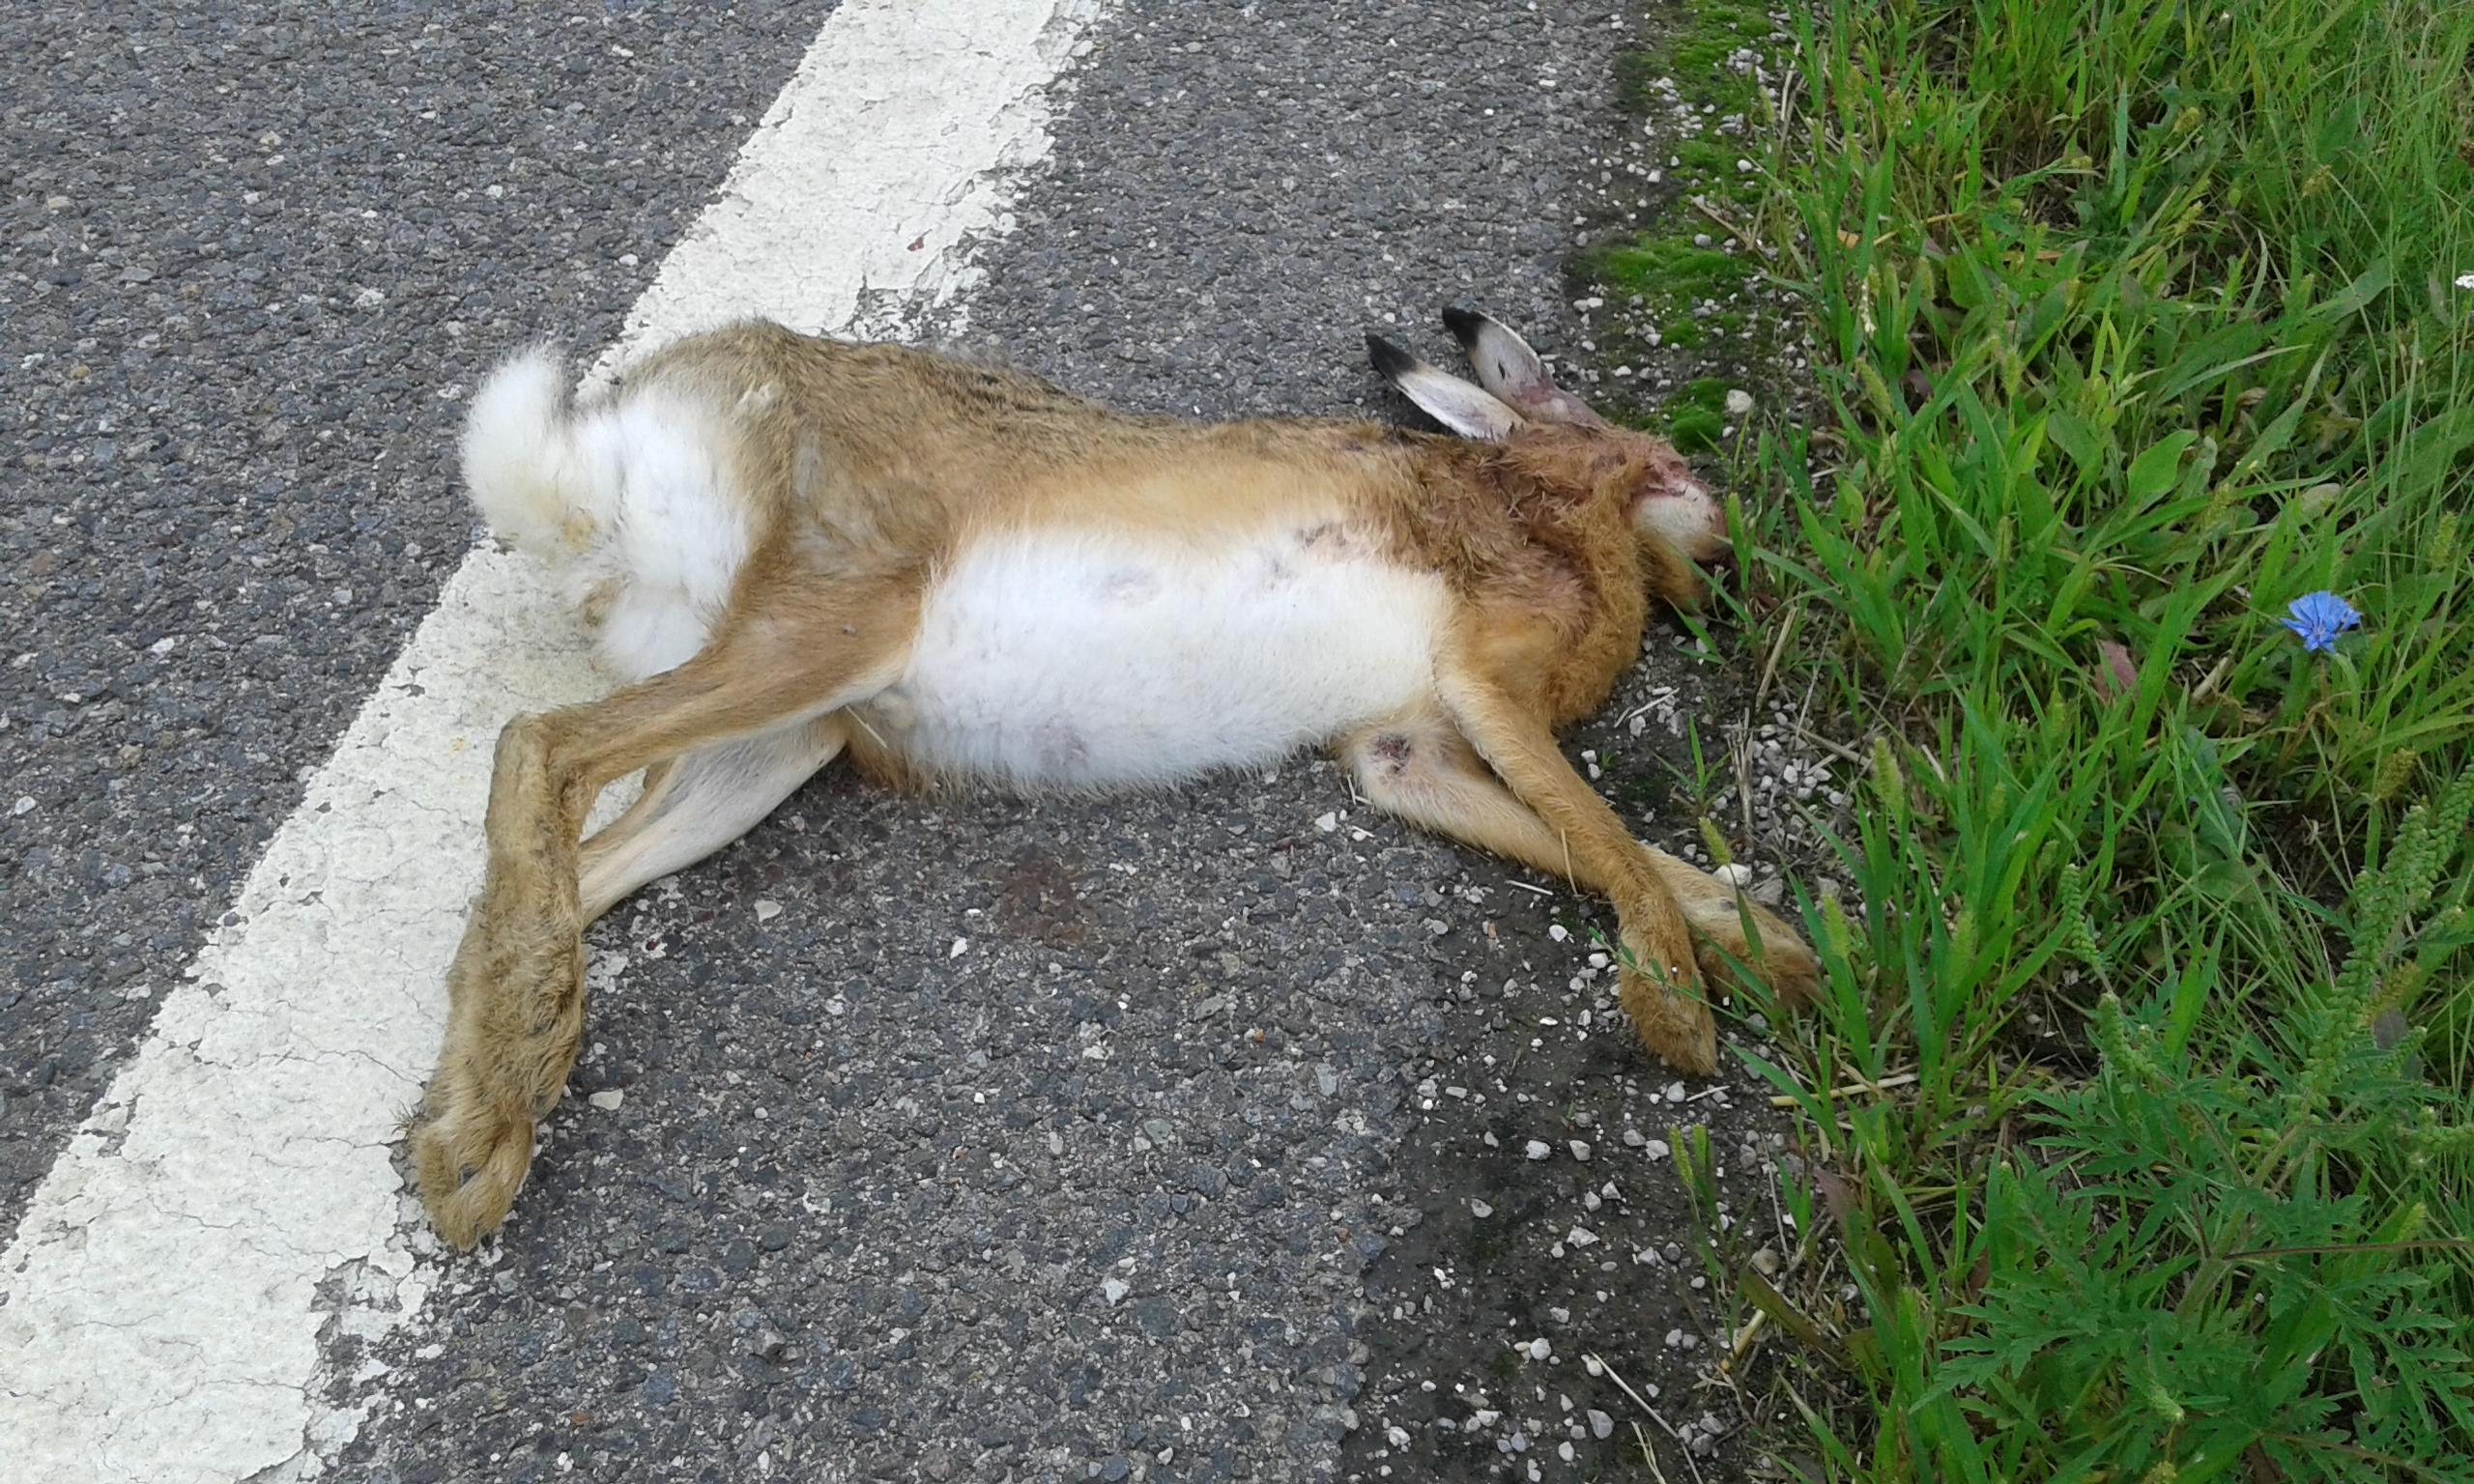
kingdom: Animalia
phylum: Chordata
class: Mammalia
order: Lagomorpha
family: Leporidae
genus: Lepus
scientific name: Lepus europaeus
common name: European hare
